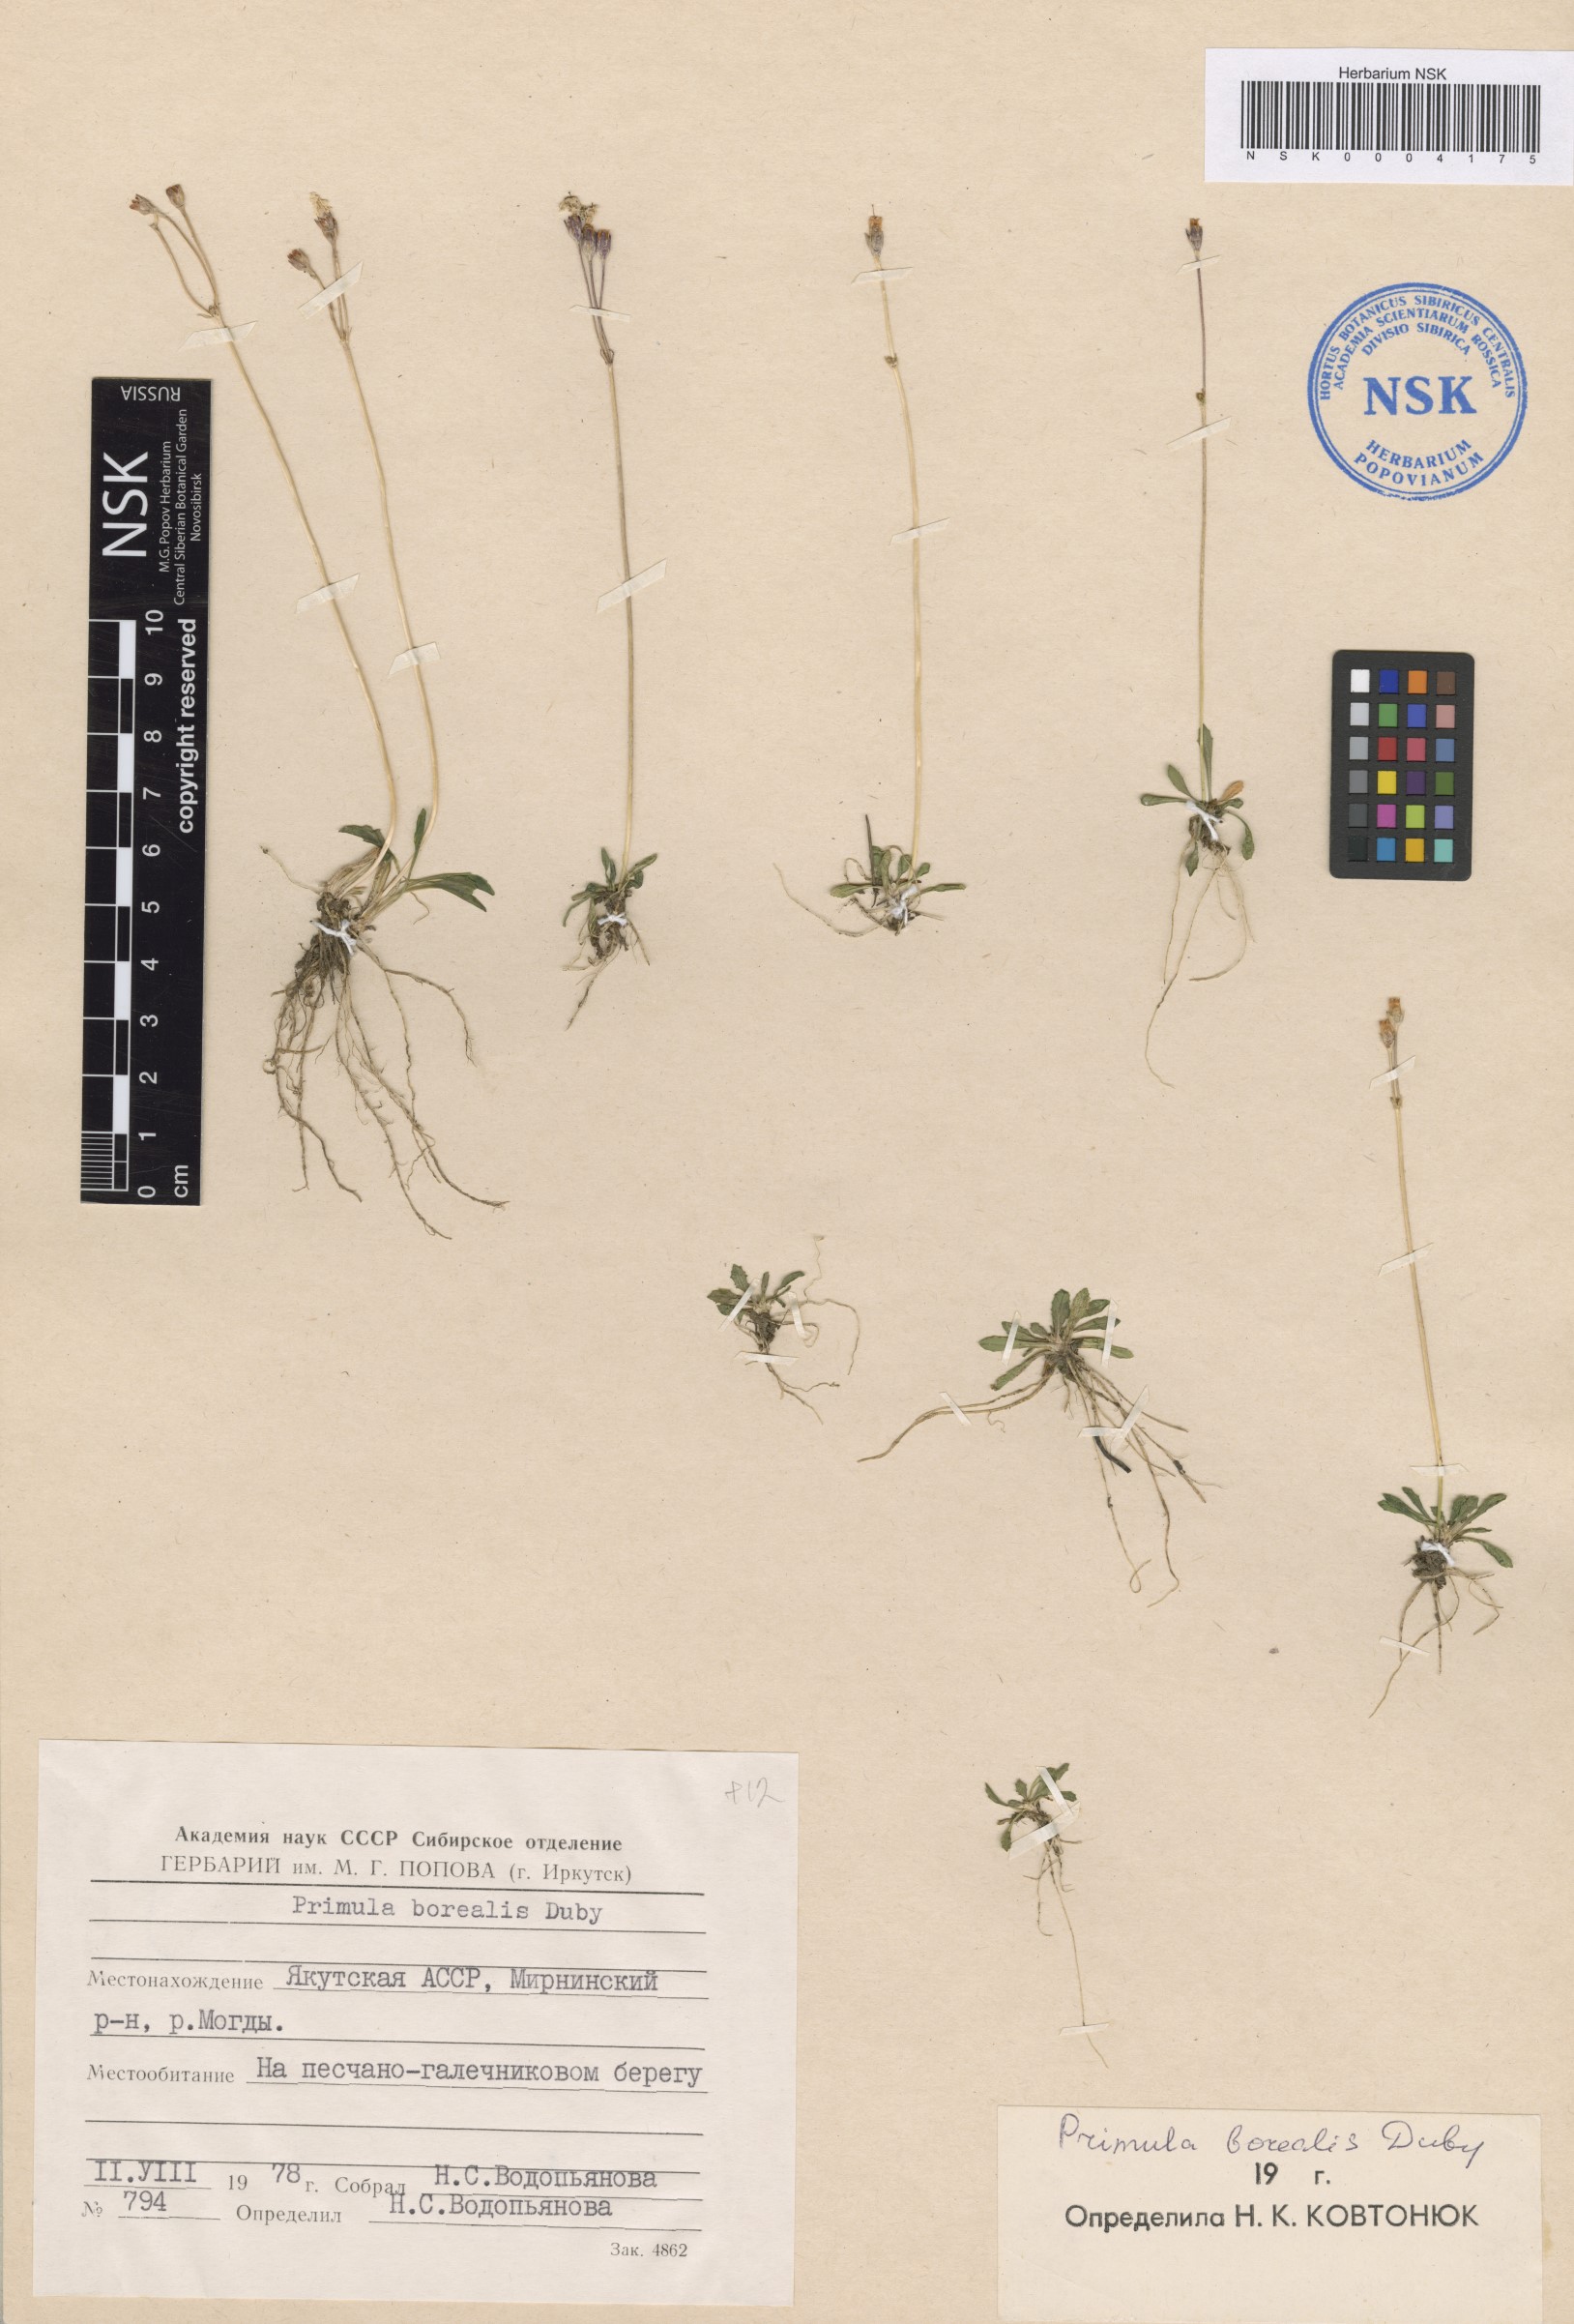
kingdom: Plantae
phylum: Tracheophyta
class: Magnoliopsida
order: Ericales
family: Primulaceae
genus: Primula
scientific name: Primula borealis
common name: Northern primrose
